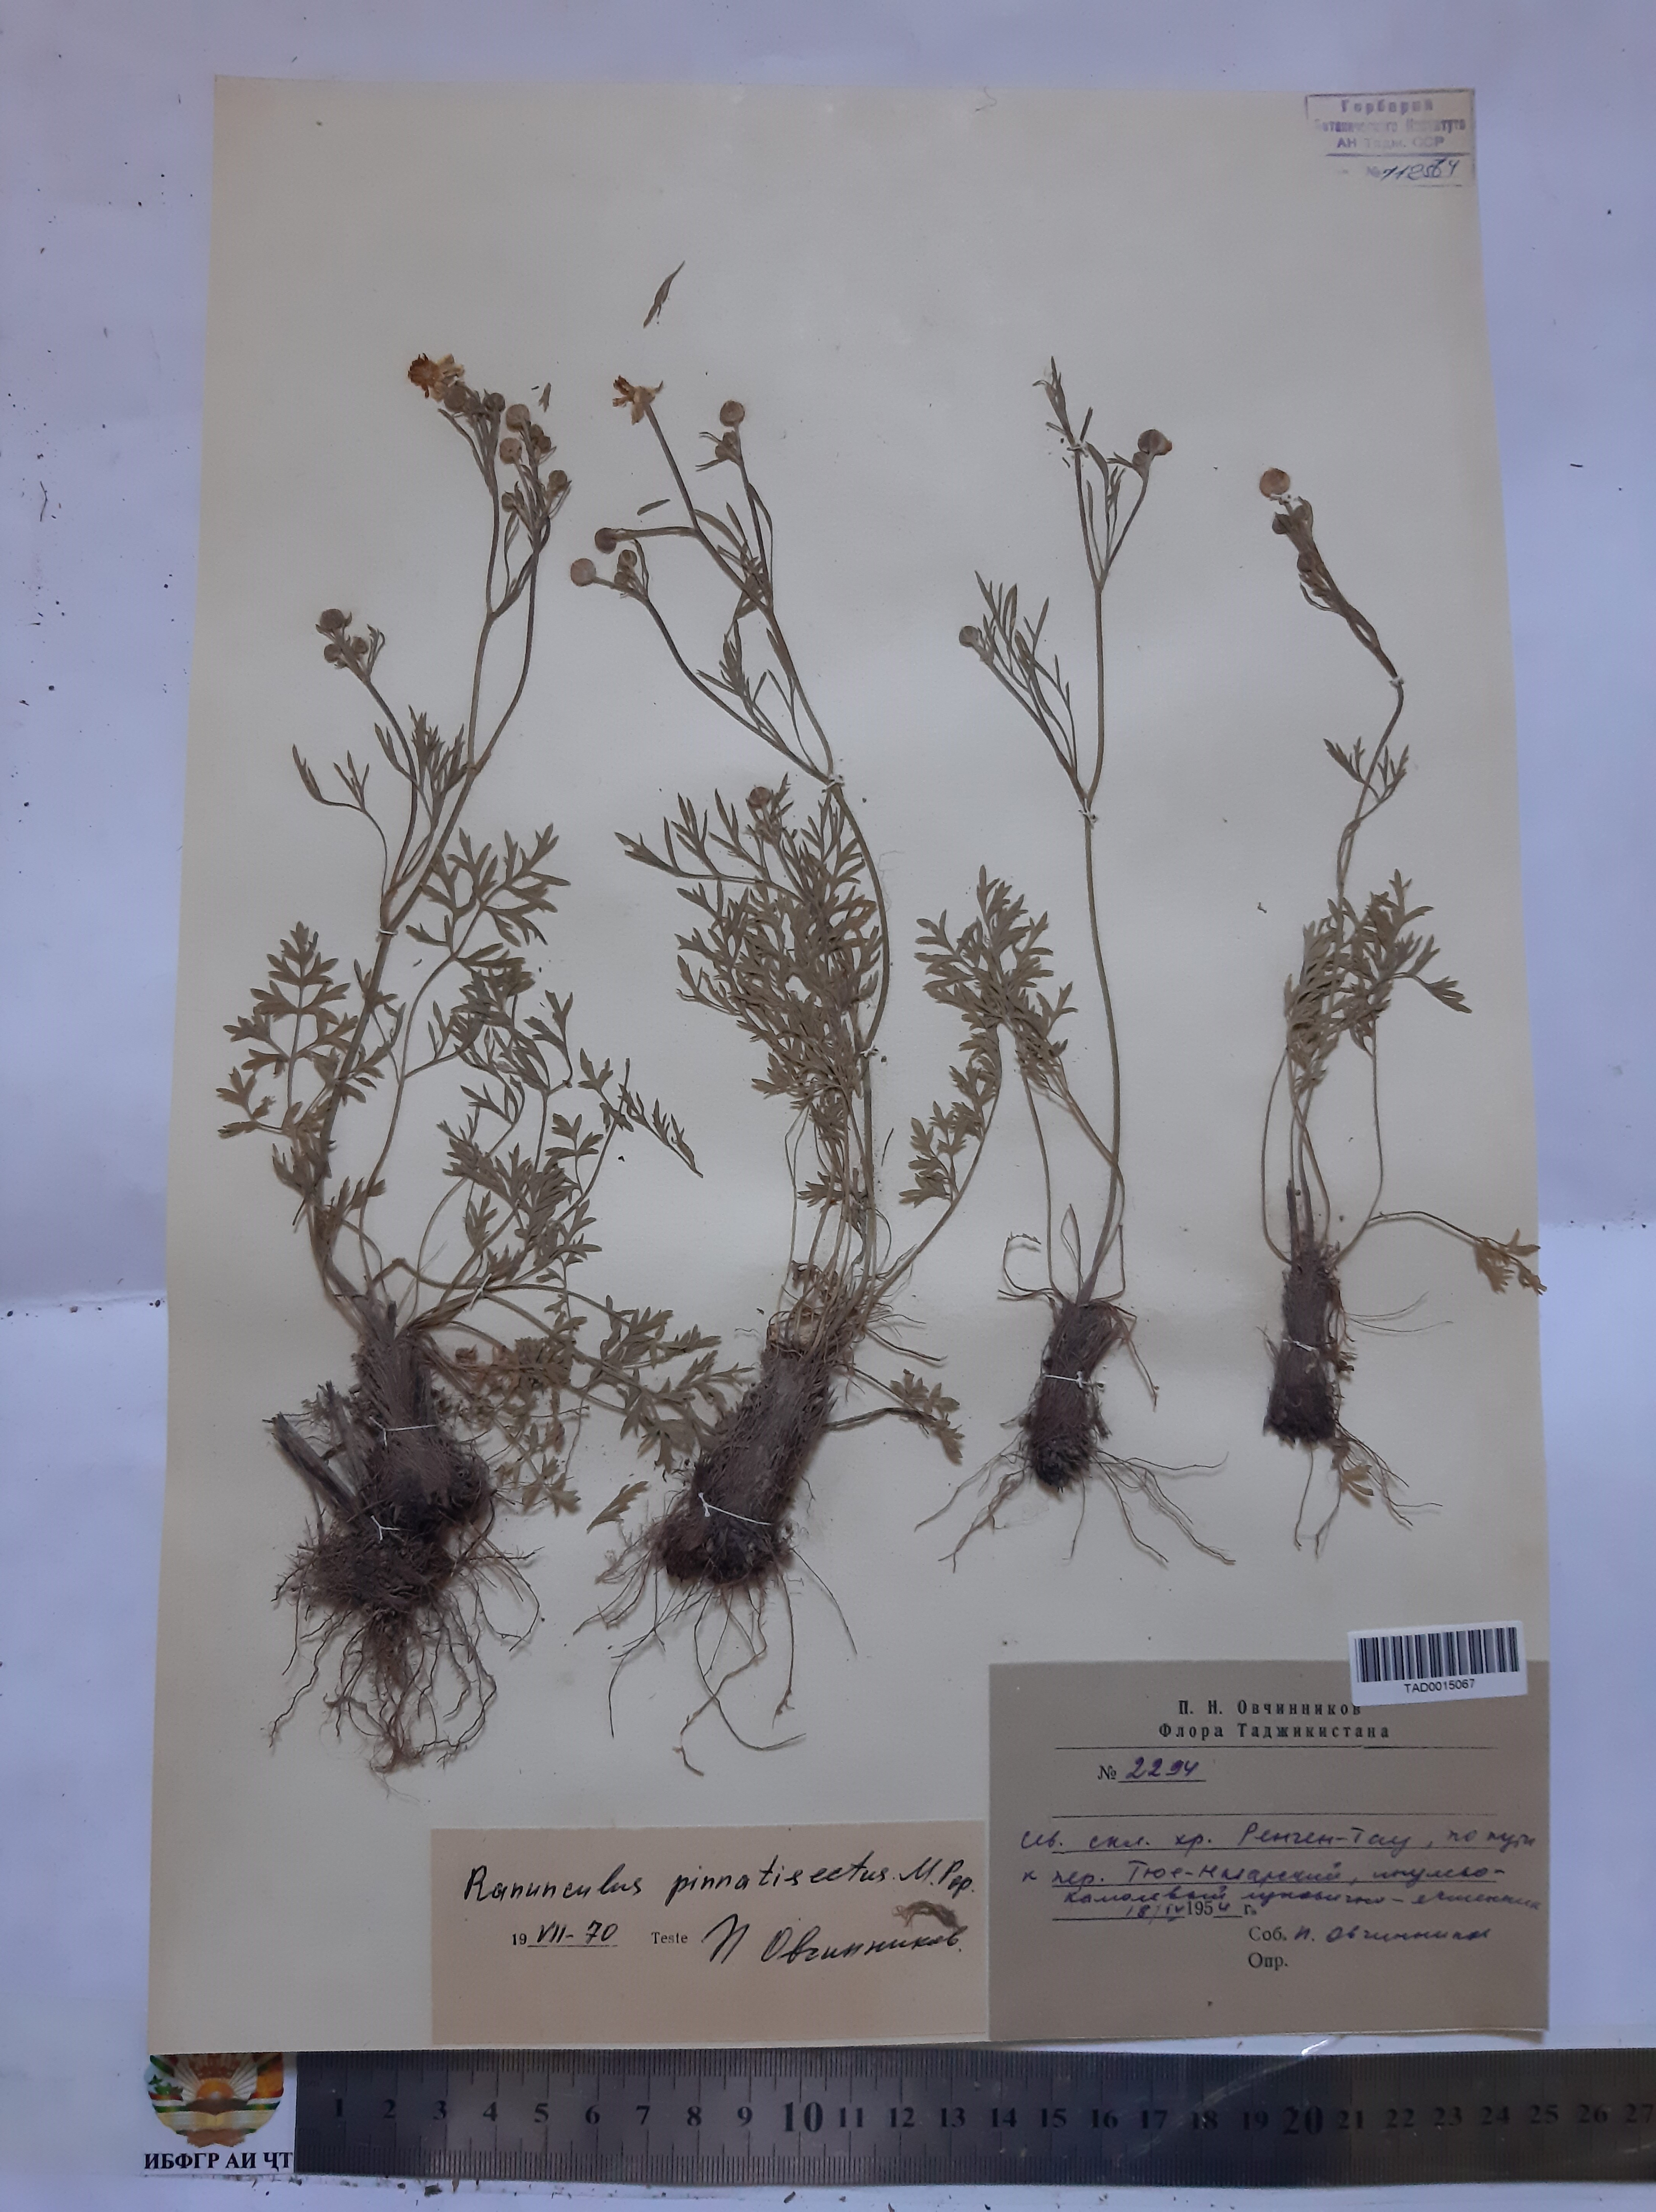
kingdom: Plantae
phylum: Tracheophyta
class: Magnoliopsida
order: Ranunculales
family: Ranunculaceae
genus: Ranunculus
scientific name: Ranunculus pinnatisectus
